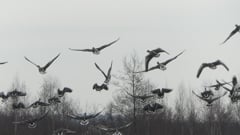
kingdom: Animalia
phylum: Chordata
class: Aves
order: Anseriformes
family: Anatidae
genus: Anser
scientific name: Anser anser
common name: Greylag goose
